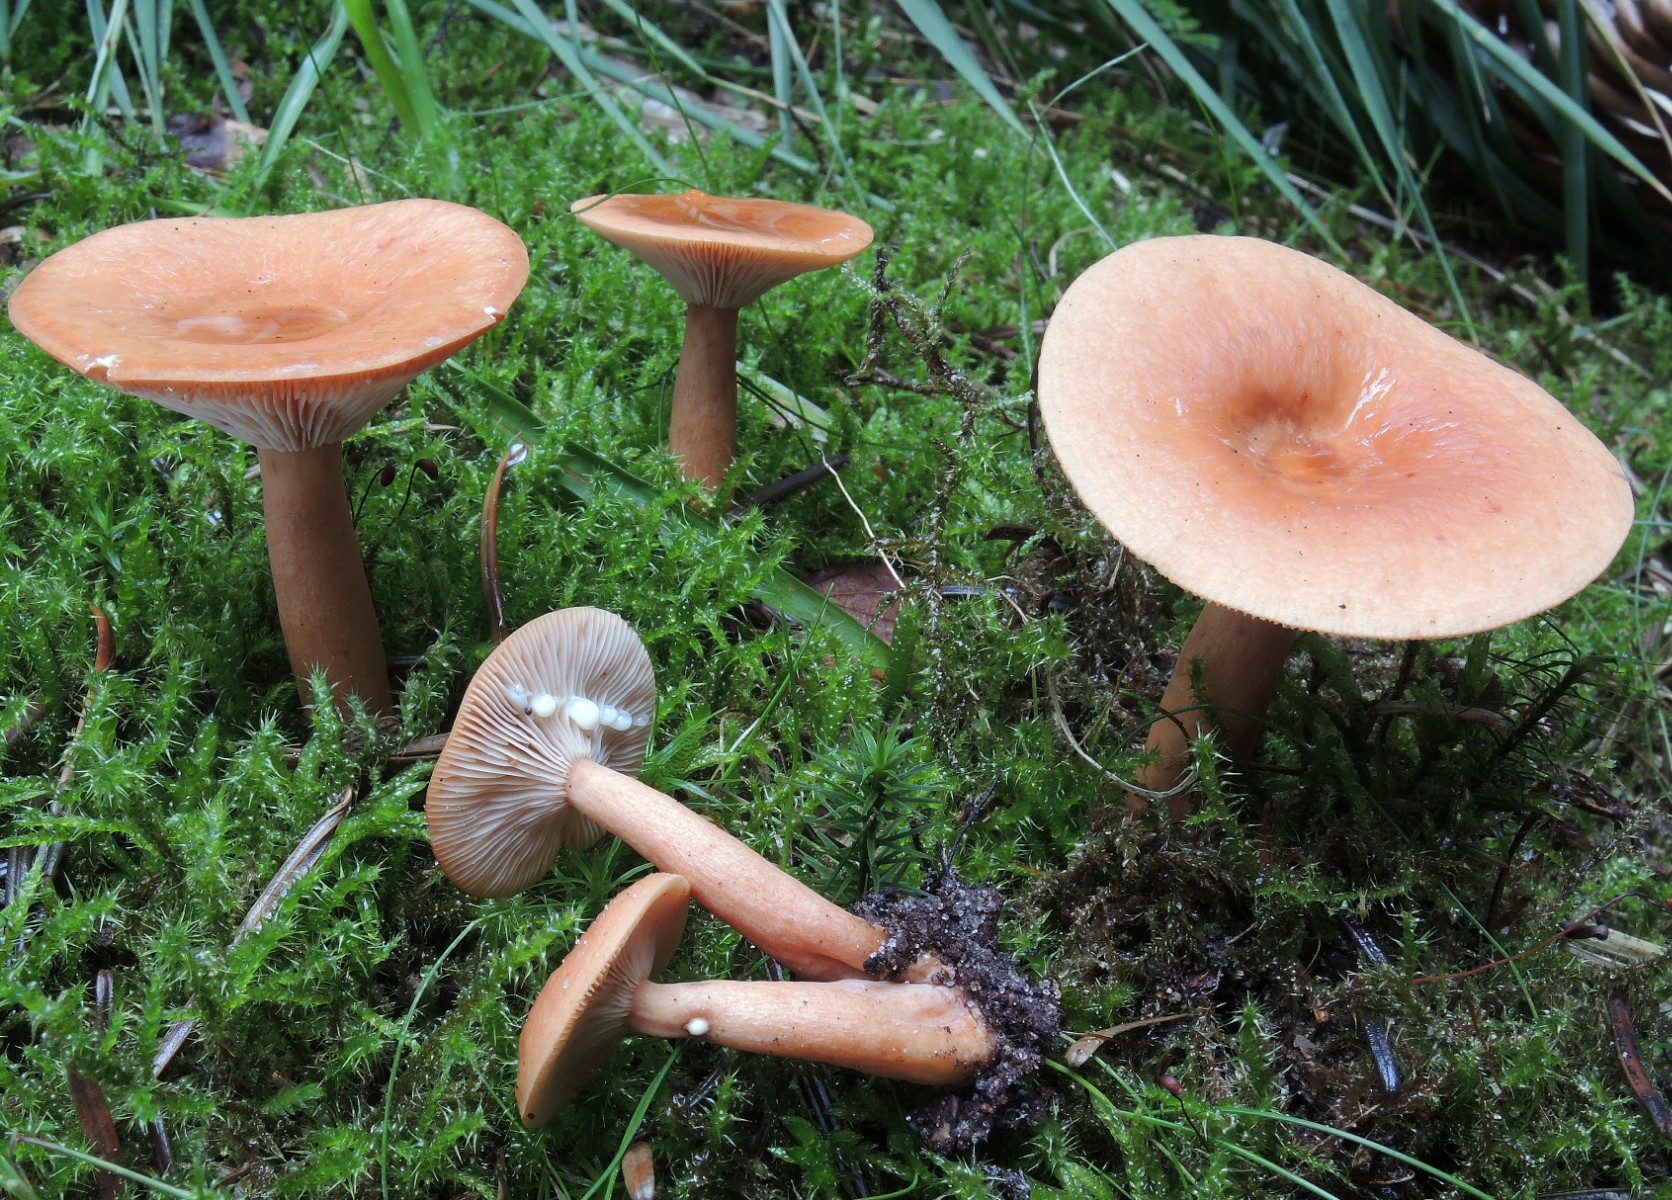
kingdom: Fungi
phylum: Basidiomycota
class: Agaricomycetes
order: Russulales
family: Russulaceae
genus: Lactarius
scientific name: Lactarius tabidus
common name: rynket mælkehat
